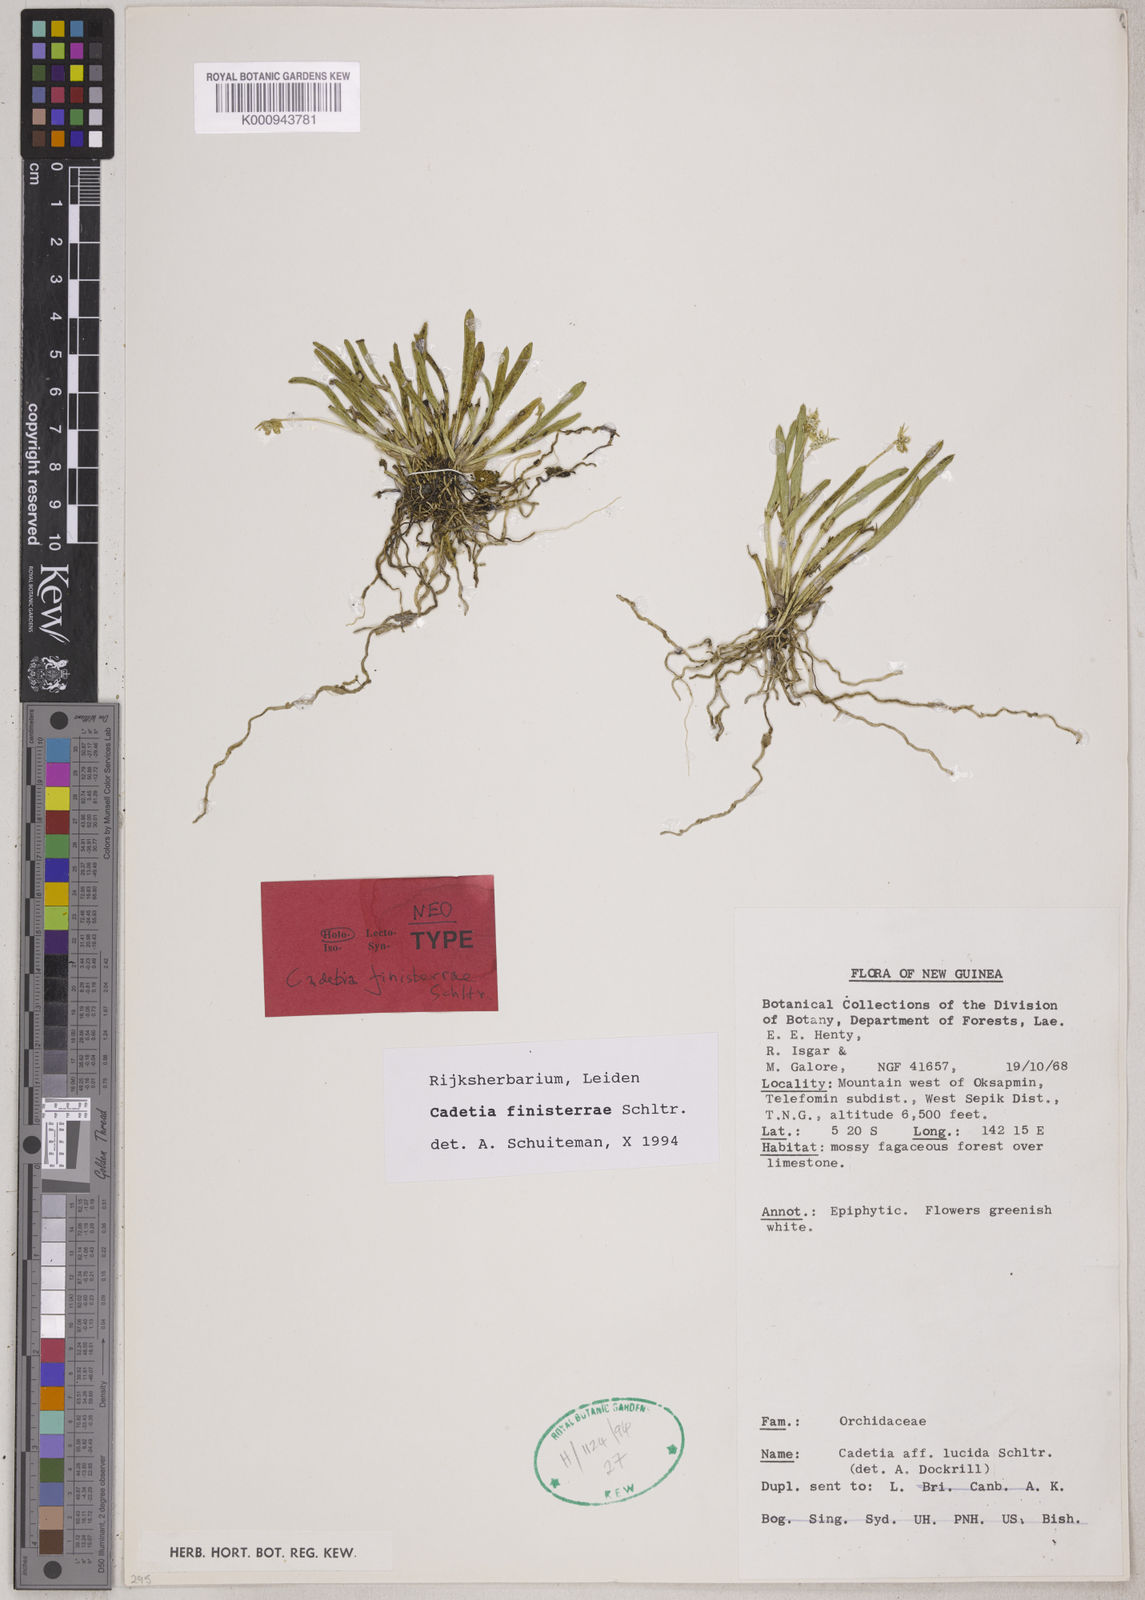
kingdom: Plantae
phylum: Tracheophyta
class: Liliopsida
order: Asparagales
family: Orchidaceae
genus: Dendrobium
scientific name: Dendrobium obreniforme
